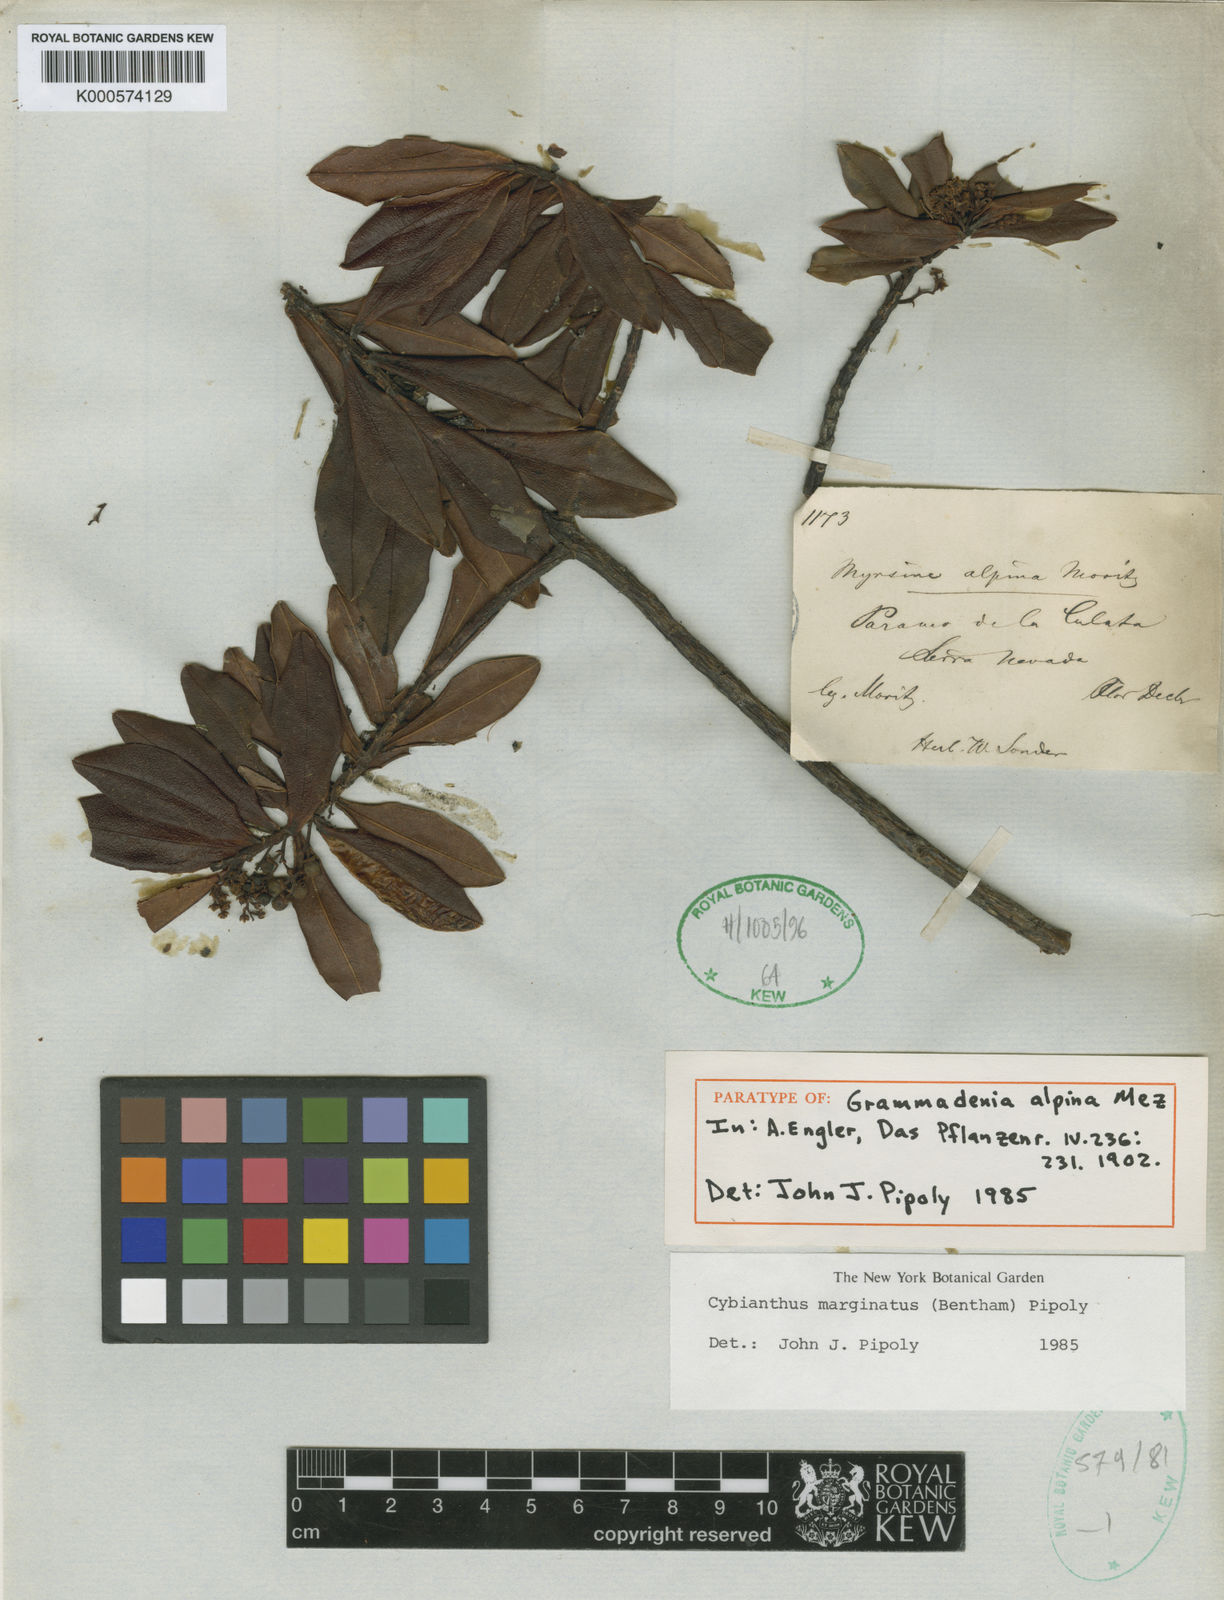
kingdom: Plantae
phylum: Tracheophyta
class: Magnoliopsida
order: Ericales
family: Primulaceae
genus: Cybianthus
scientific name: Cybianthus marginatus
